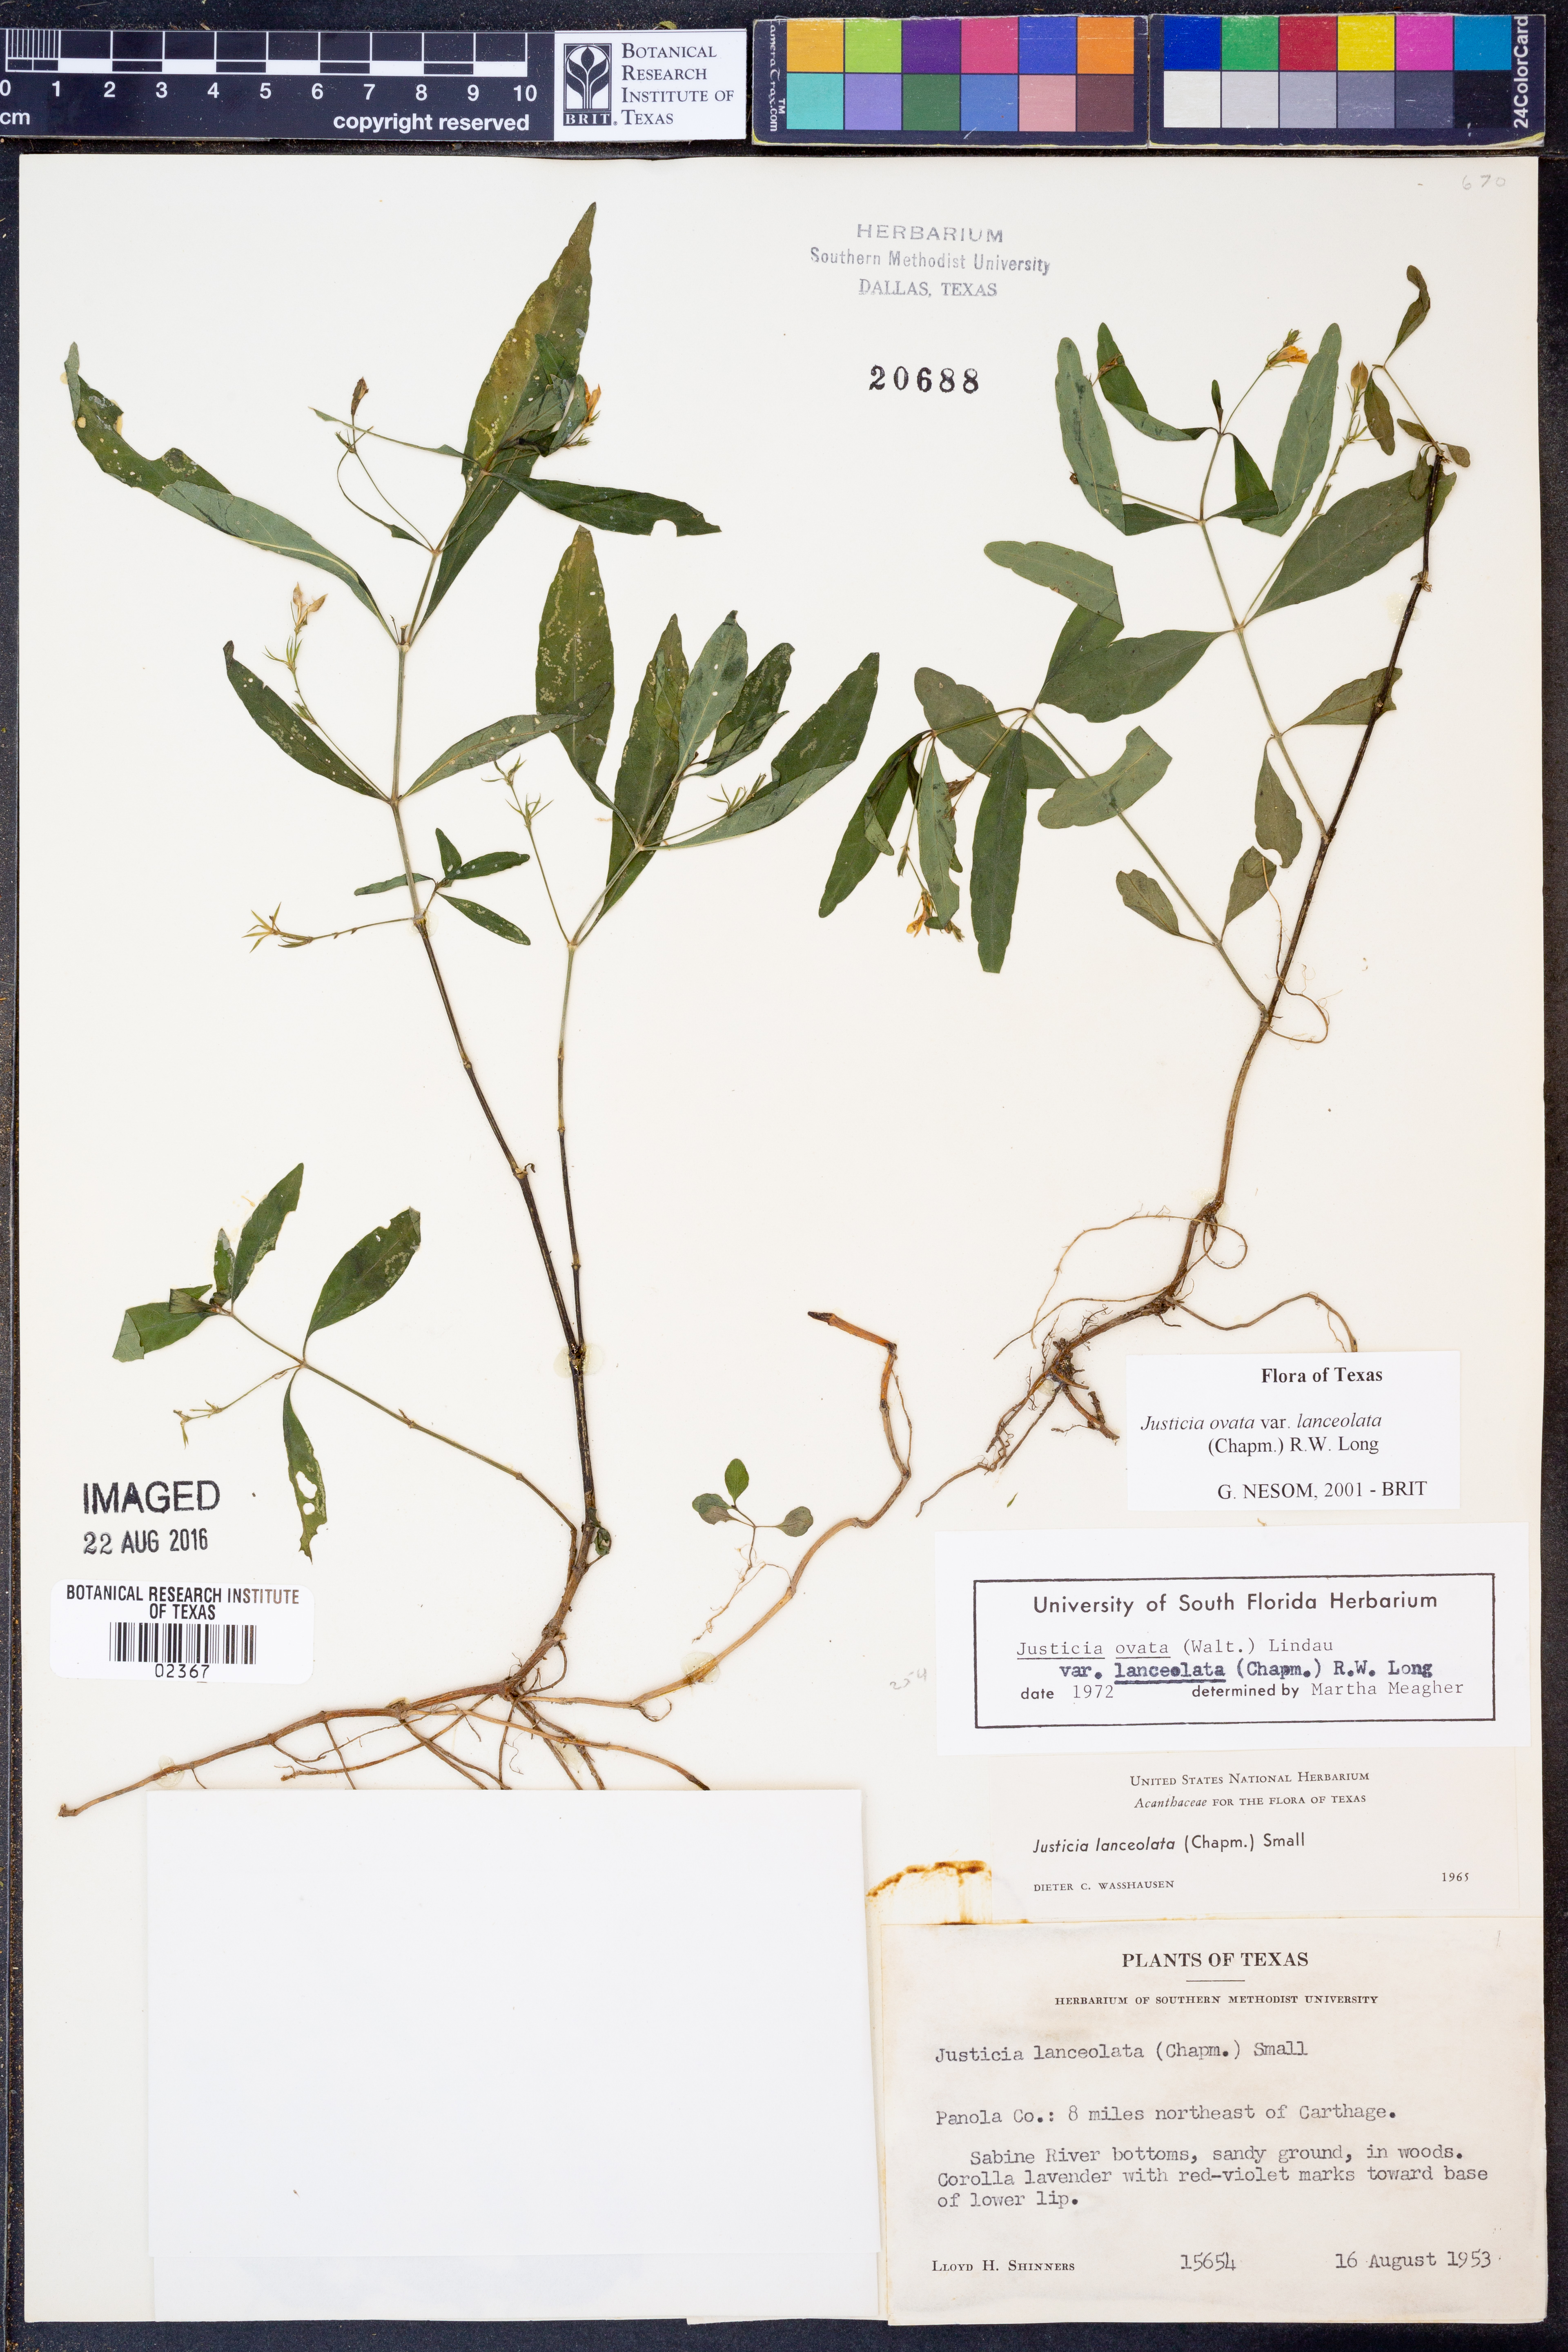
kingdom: Plantae
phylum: Tracheophyta
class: Magnoliopsida
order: Lamiales
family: Acanthaceae
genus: Justicia
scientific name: Justicia lanceolata
